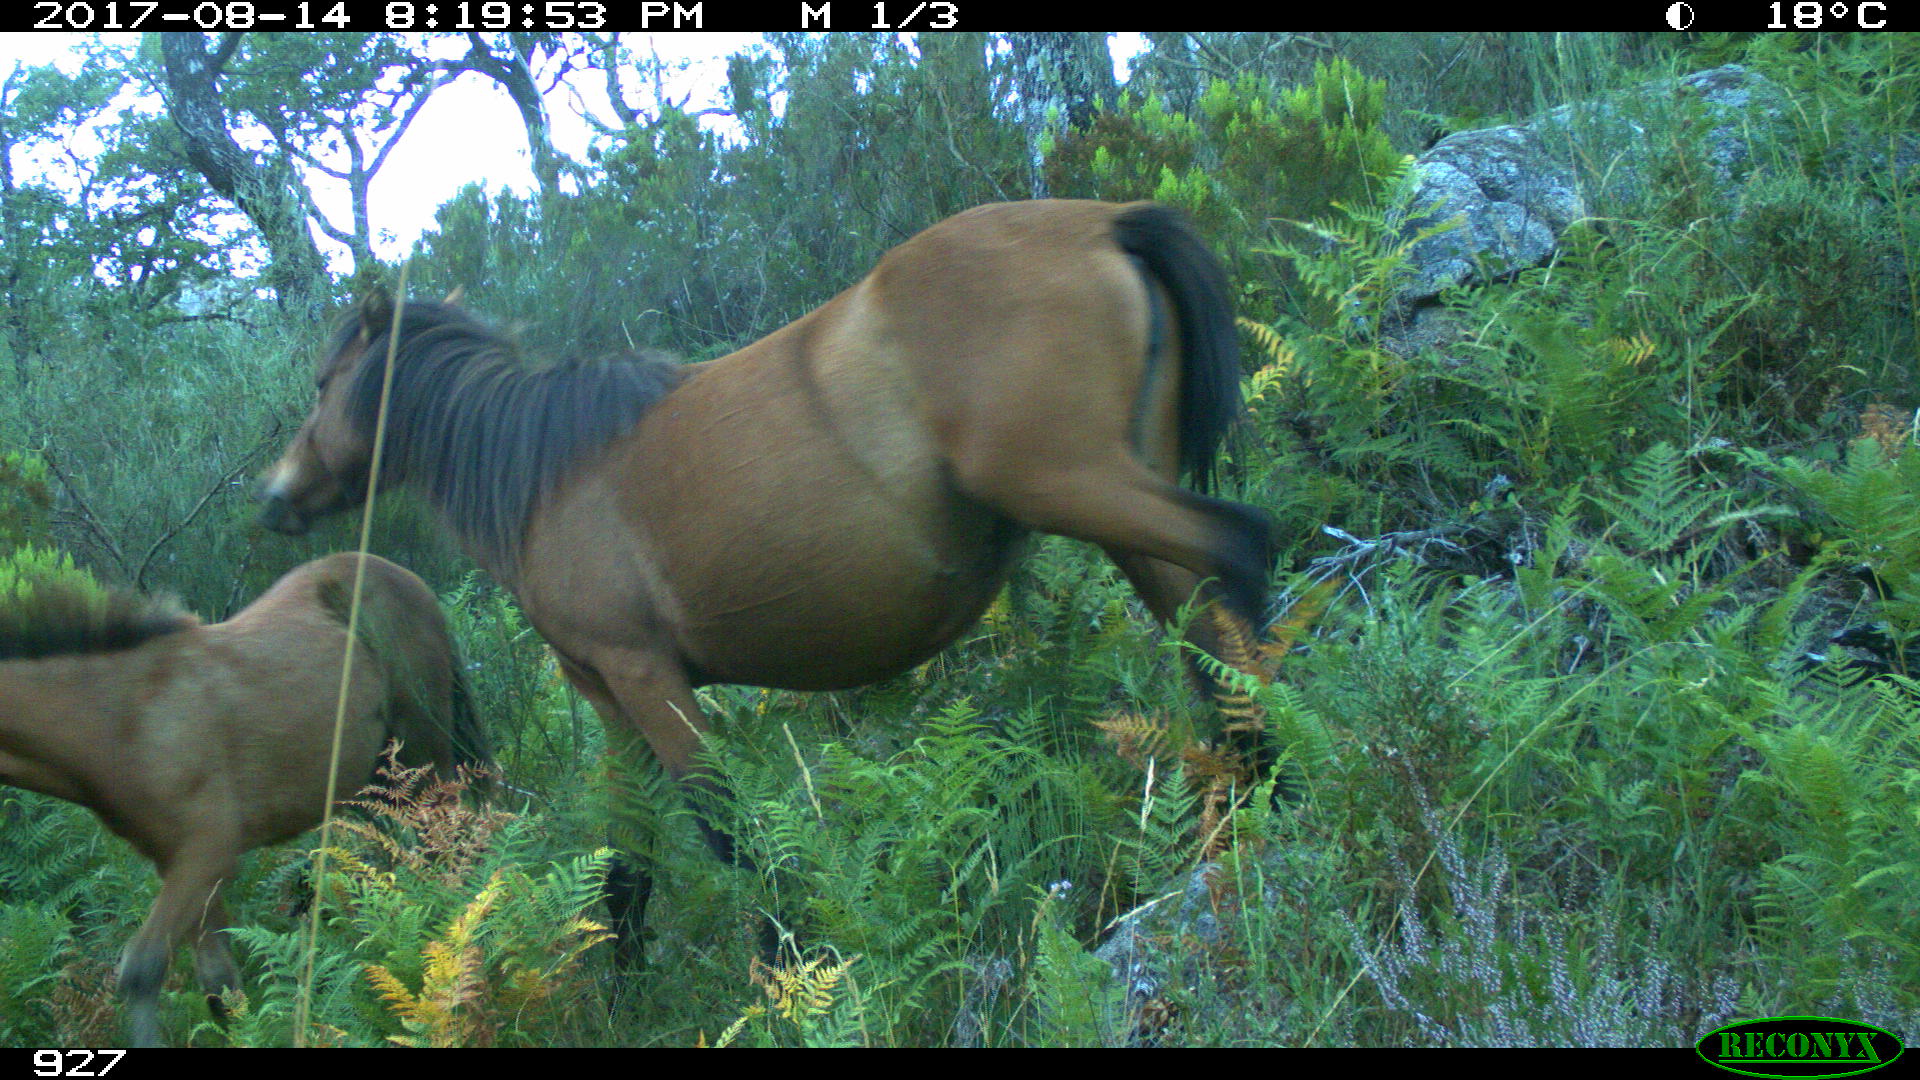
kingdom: Animalia
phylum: Chordata
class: Mammalia
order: Perissodactyla
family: Equidae
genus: Equus
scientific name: Equus caballus
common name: Horse
